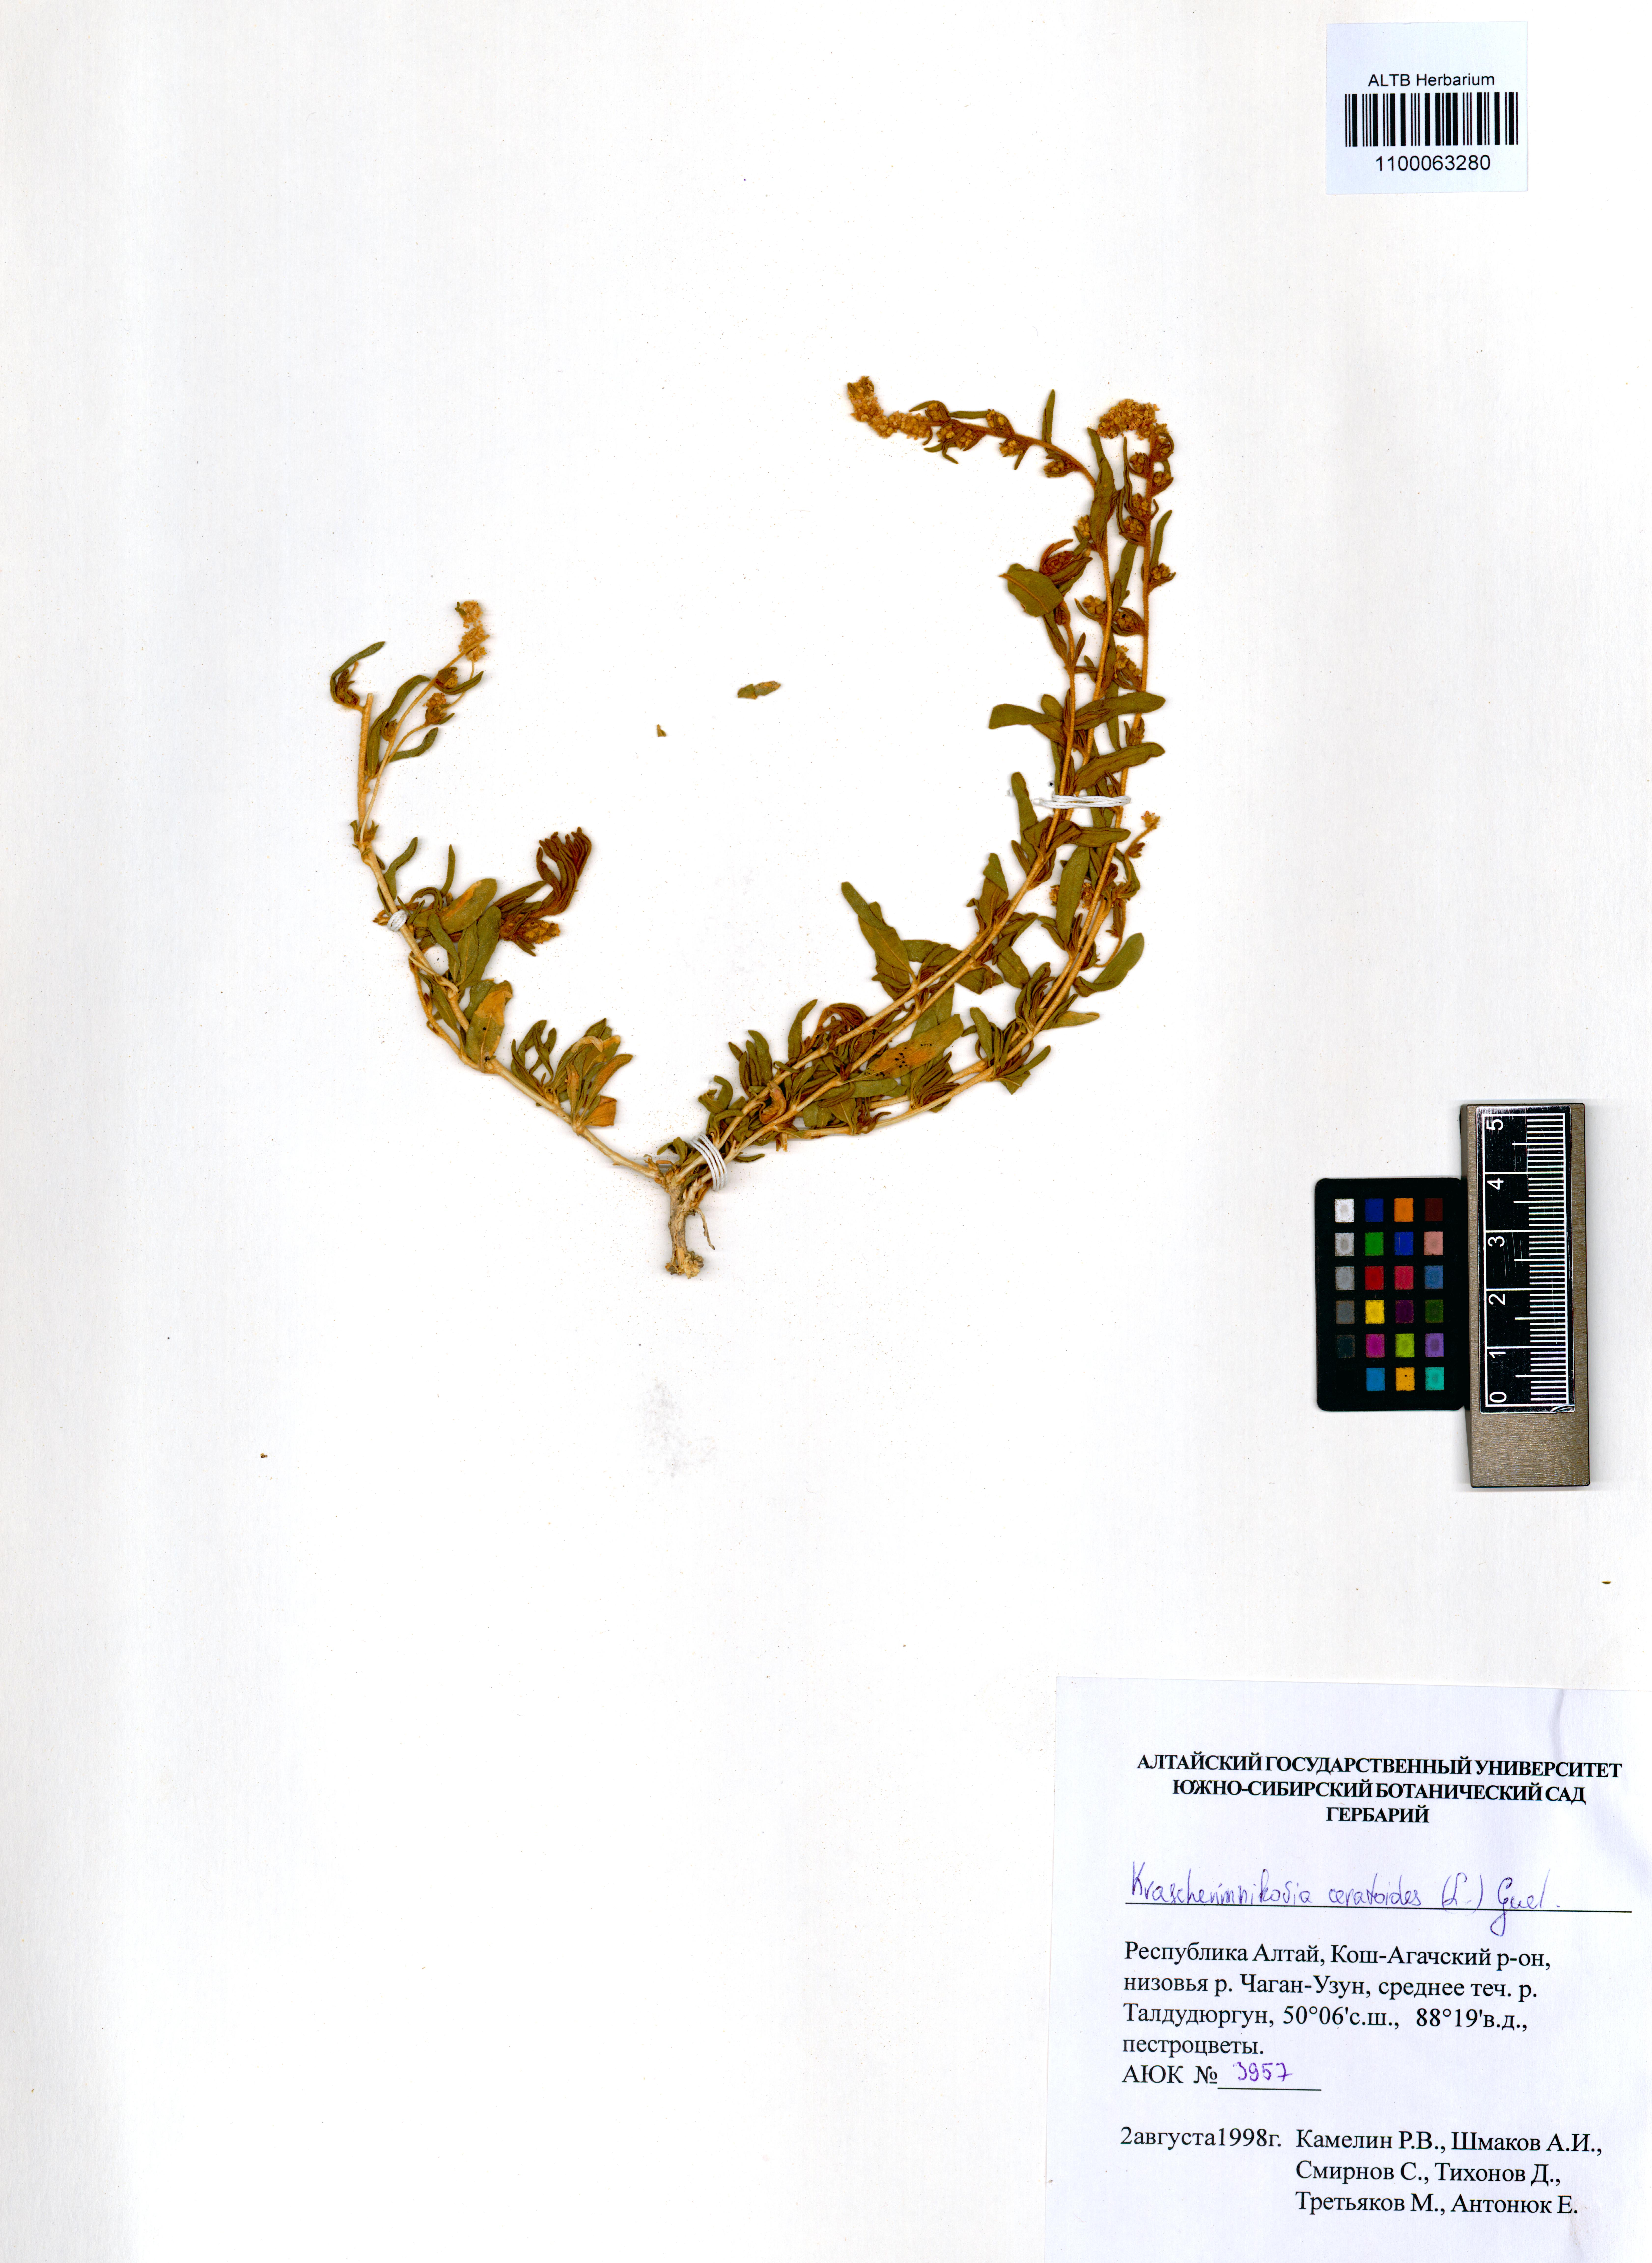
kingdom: Plantae
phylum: Tracheophyta
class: Magnoliopsida
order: Caryophyllales
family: Amaranthaceae
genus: Krascheninnikovia
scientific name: Krascheninnikovia ceratoides
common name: Pamirian winterfat
